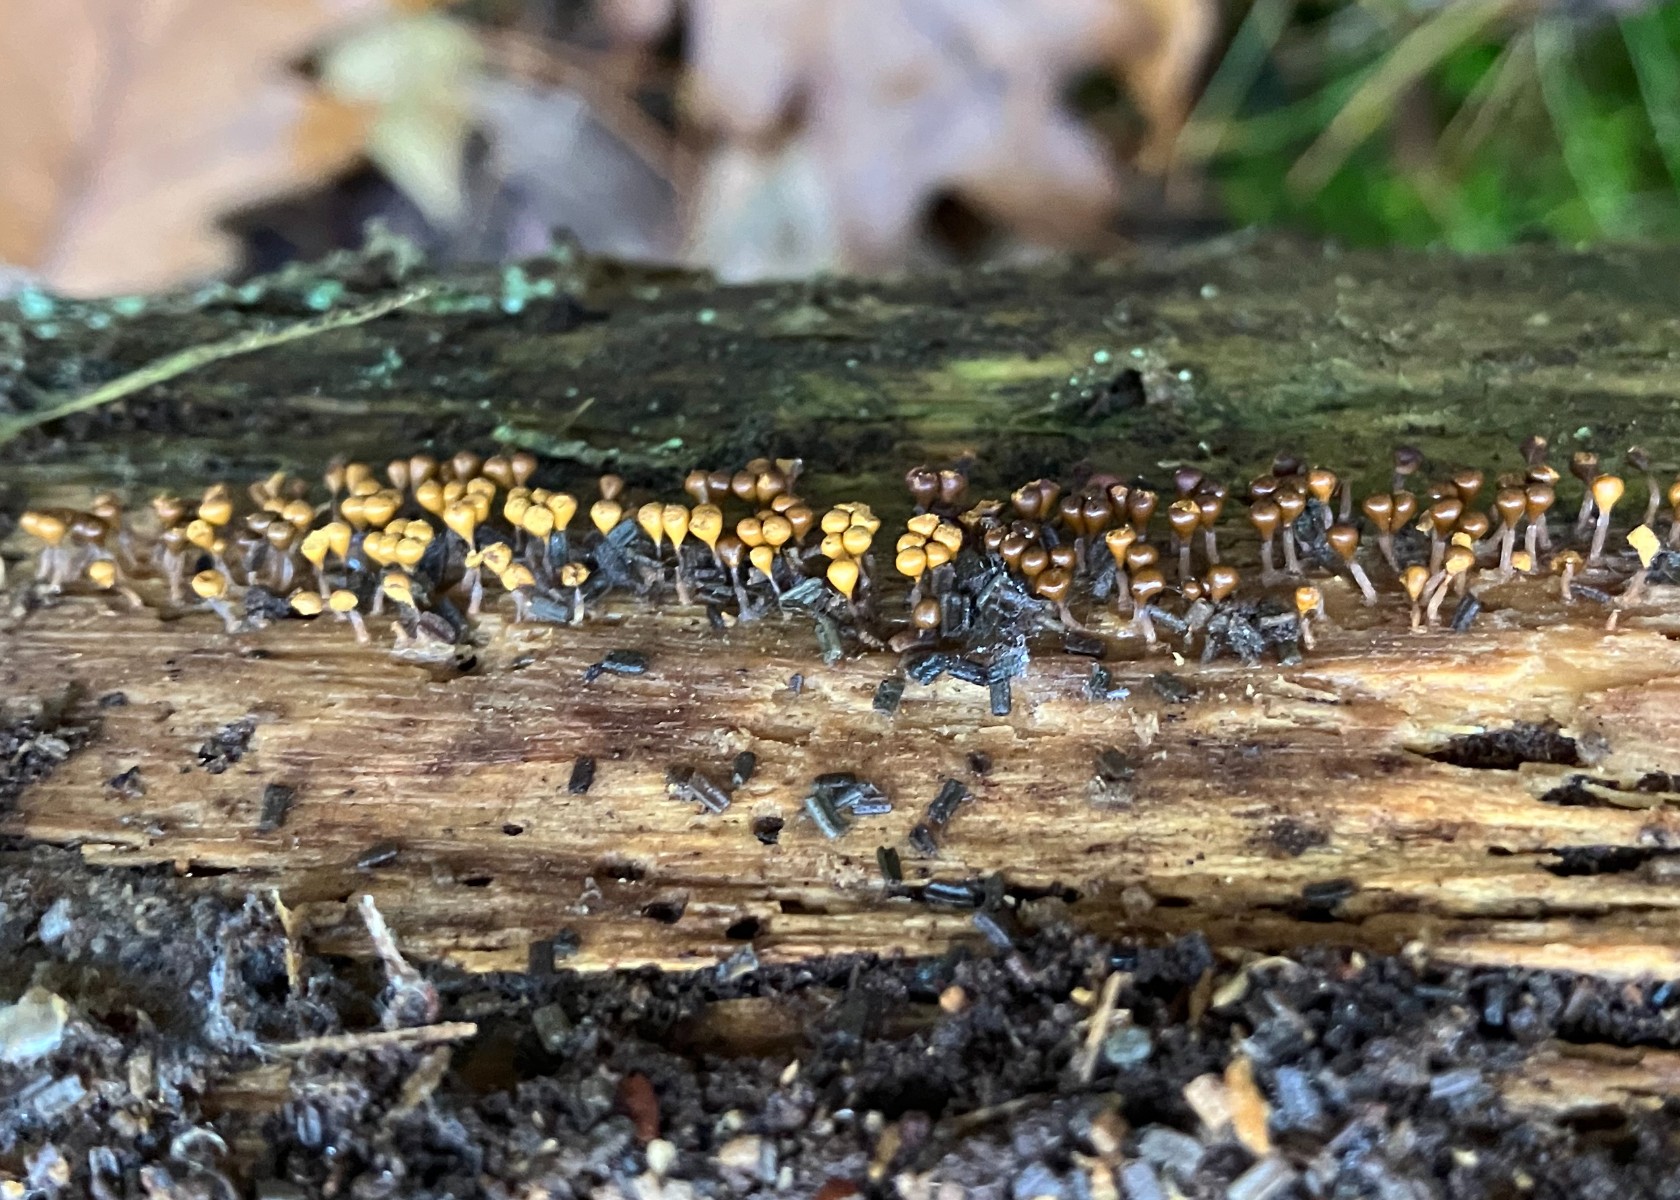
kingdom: Protozoa
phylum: Mycetozoa
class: Myxomycetes
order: Trichiales
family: Arcyriaceae
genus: Hemitrichia
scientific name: Hemitrichia decipiens
